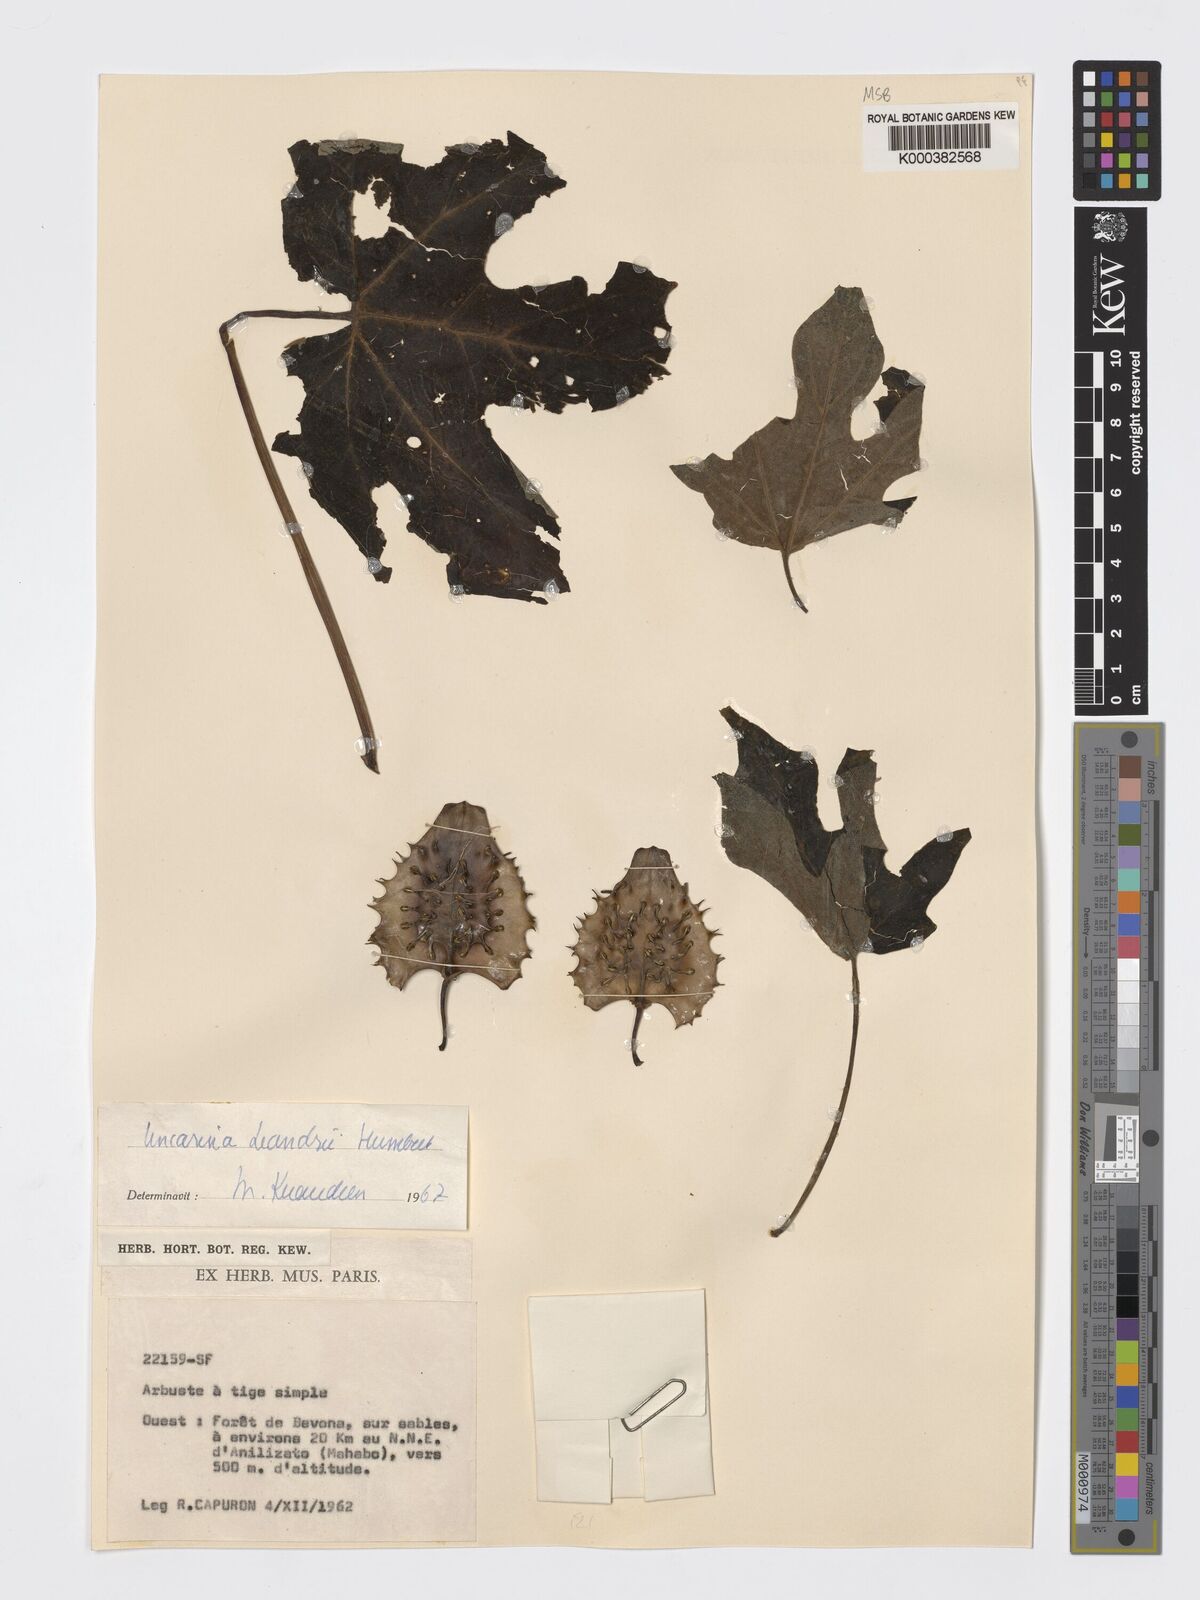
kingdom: Plantae
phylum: Tracheophyta
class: Magnoliopsida
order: Lamiales
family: Pedaliaceae
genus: Uncarina
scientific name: Uncarina leandrii
